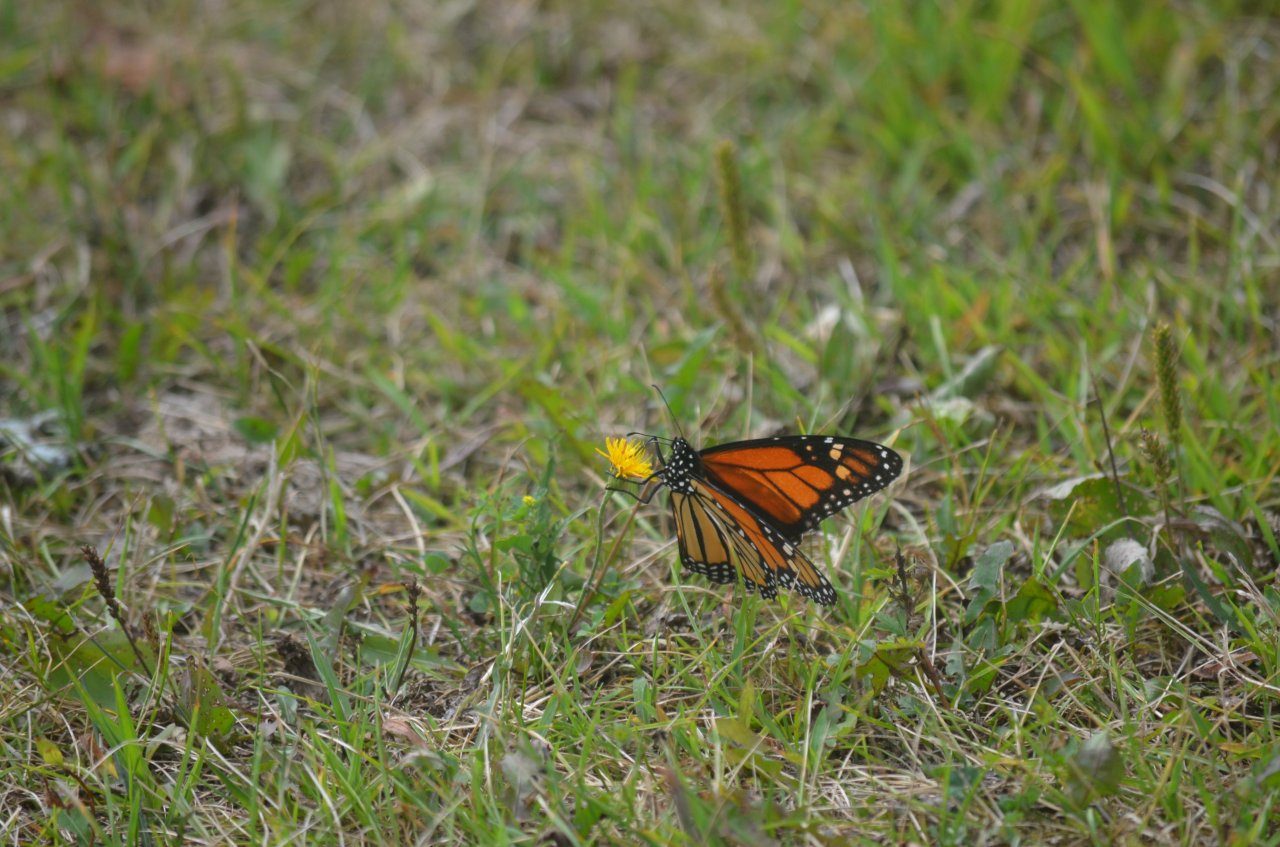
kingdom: Animalia
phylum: Arthropoda
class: Insecta
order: Lepidoptera
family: Nymphalidae
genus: Danaus
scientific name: Danaus plexippus
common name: Monarch
